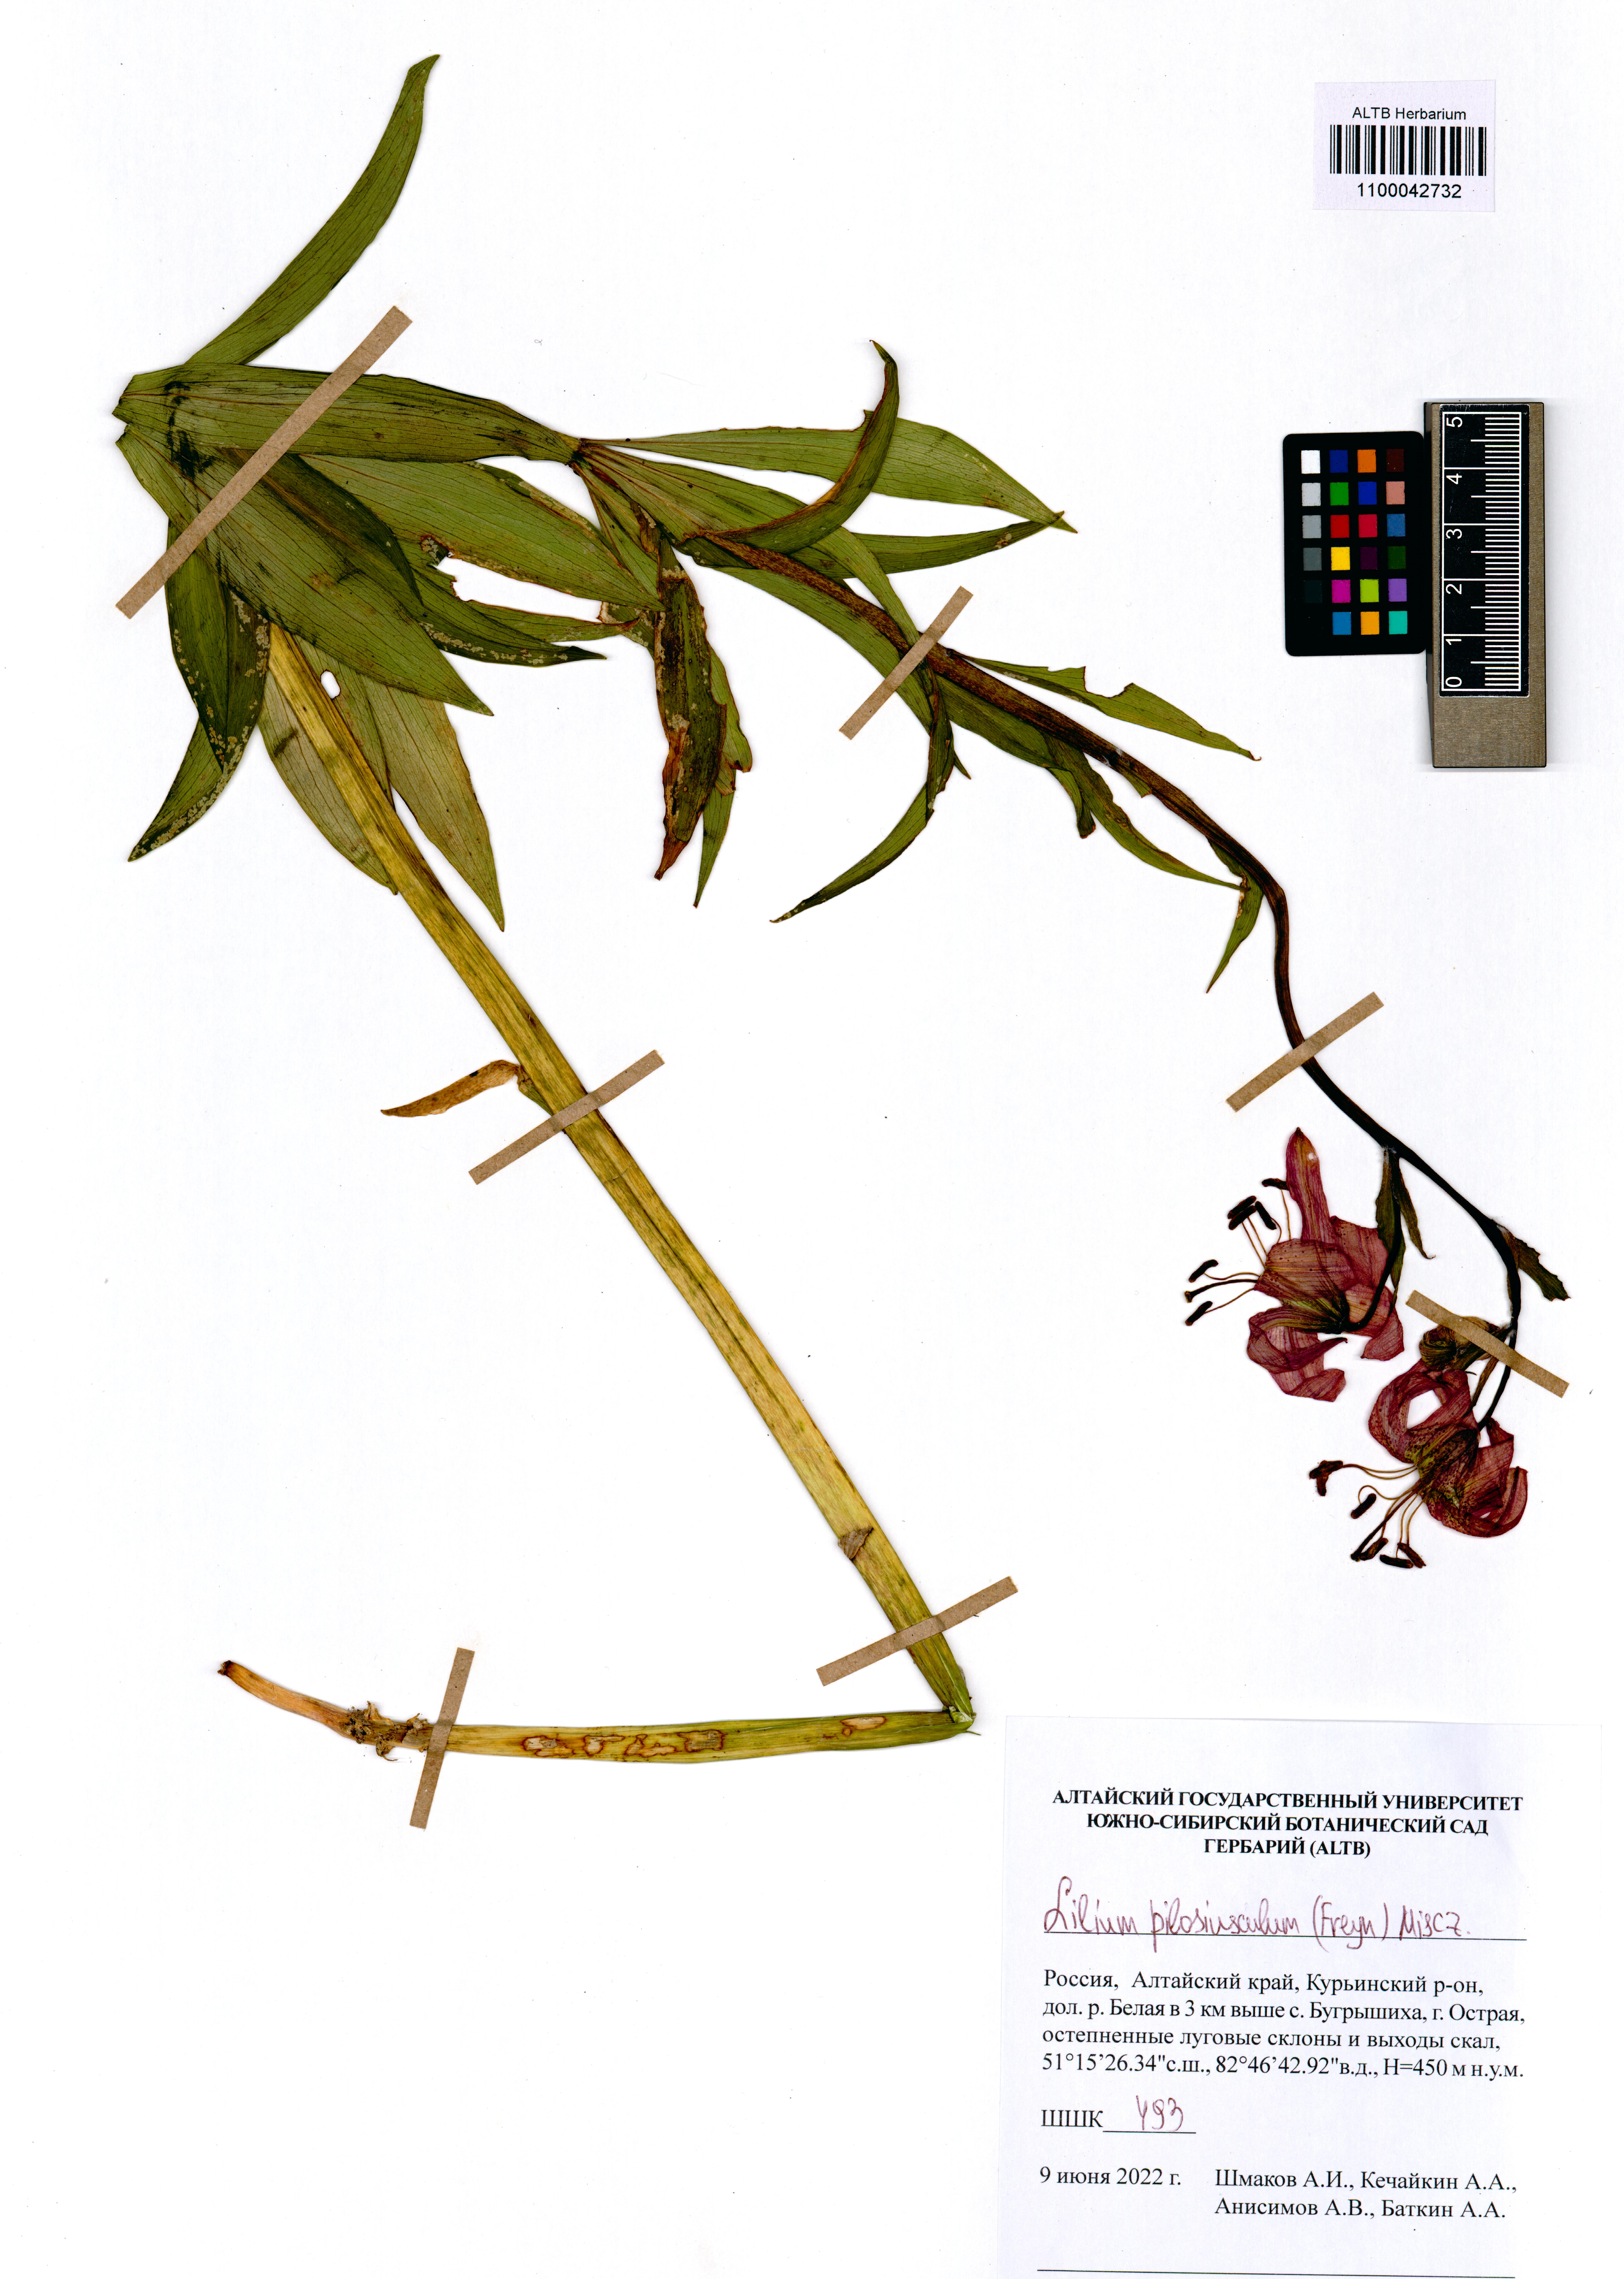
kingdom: Plantae
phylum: Tracheophyta
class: Liliopsida
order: Liliales
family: Liliaceae
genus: Lilium
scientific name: Lilium martagon
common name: Martagon lily
